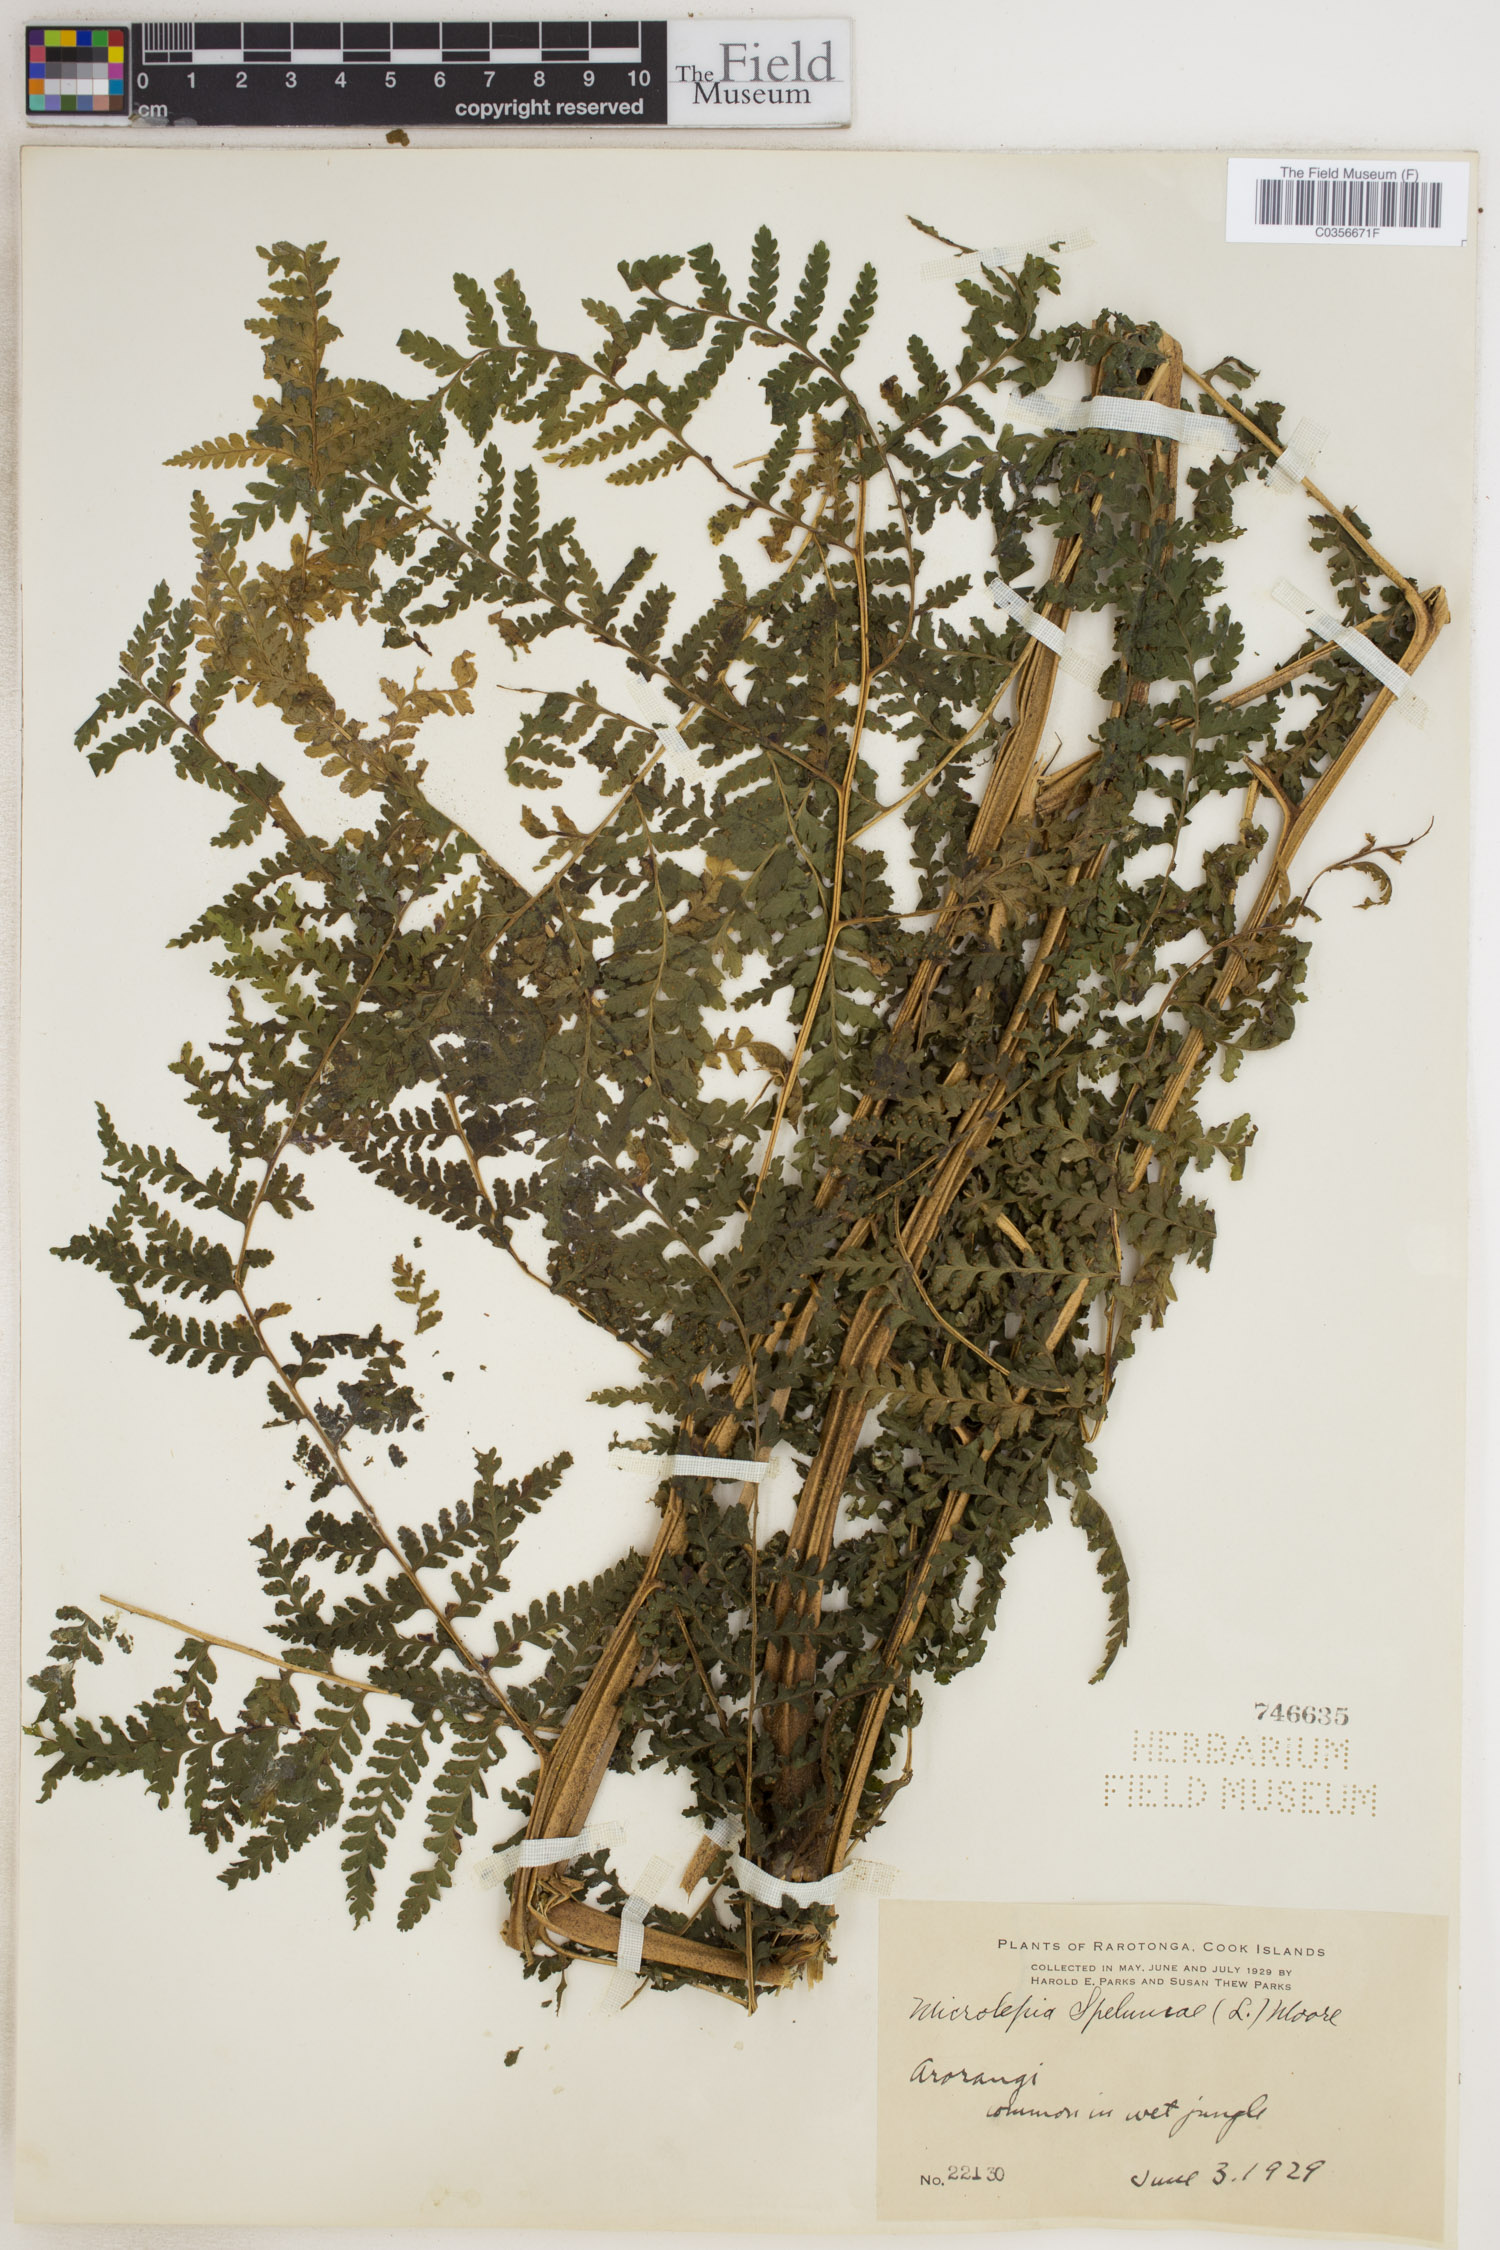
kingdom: Plantae
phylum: Tracheophyta
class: Polypodiopsida
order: Polypodiales
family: Dennstaedtiaceae
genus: Microlepia
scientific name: Microlepia speluncae
